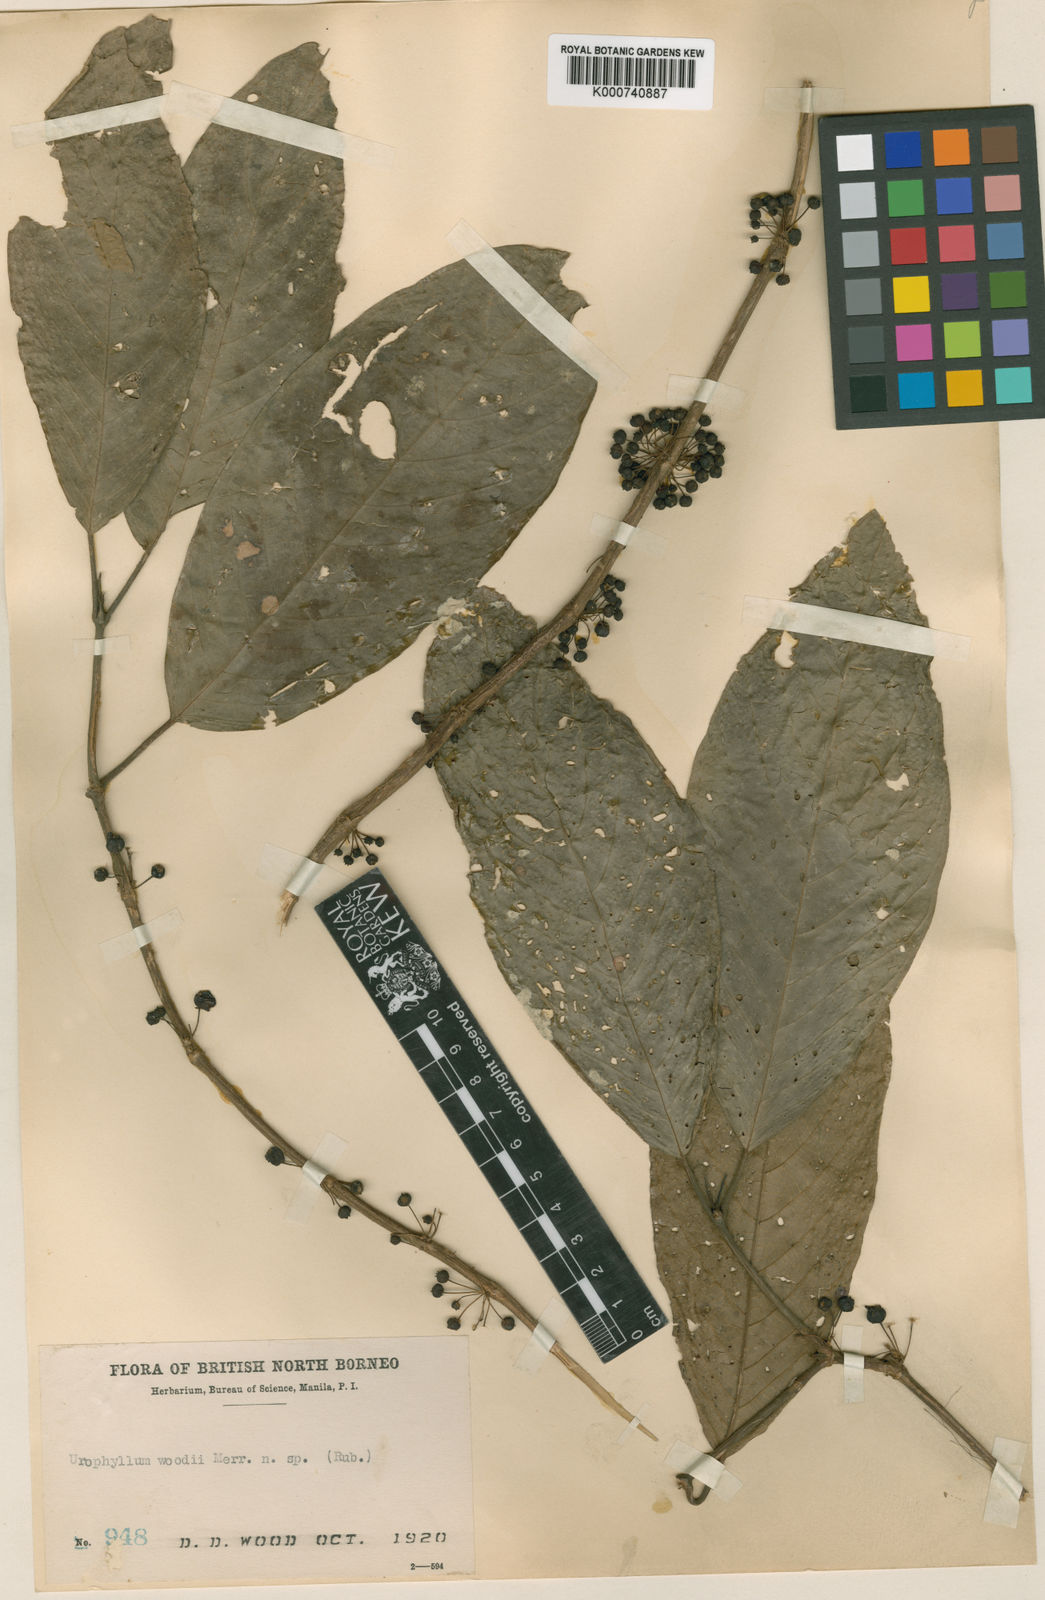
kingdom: Plantae
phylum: Tracheophyta
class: Magnoliopsida
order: Gentianales
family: Rubiaceae
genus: Urophyllum
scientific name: Urophyllum woodii
